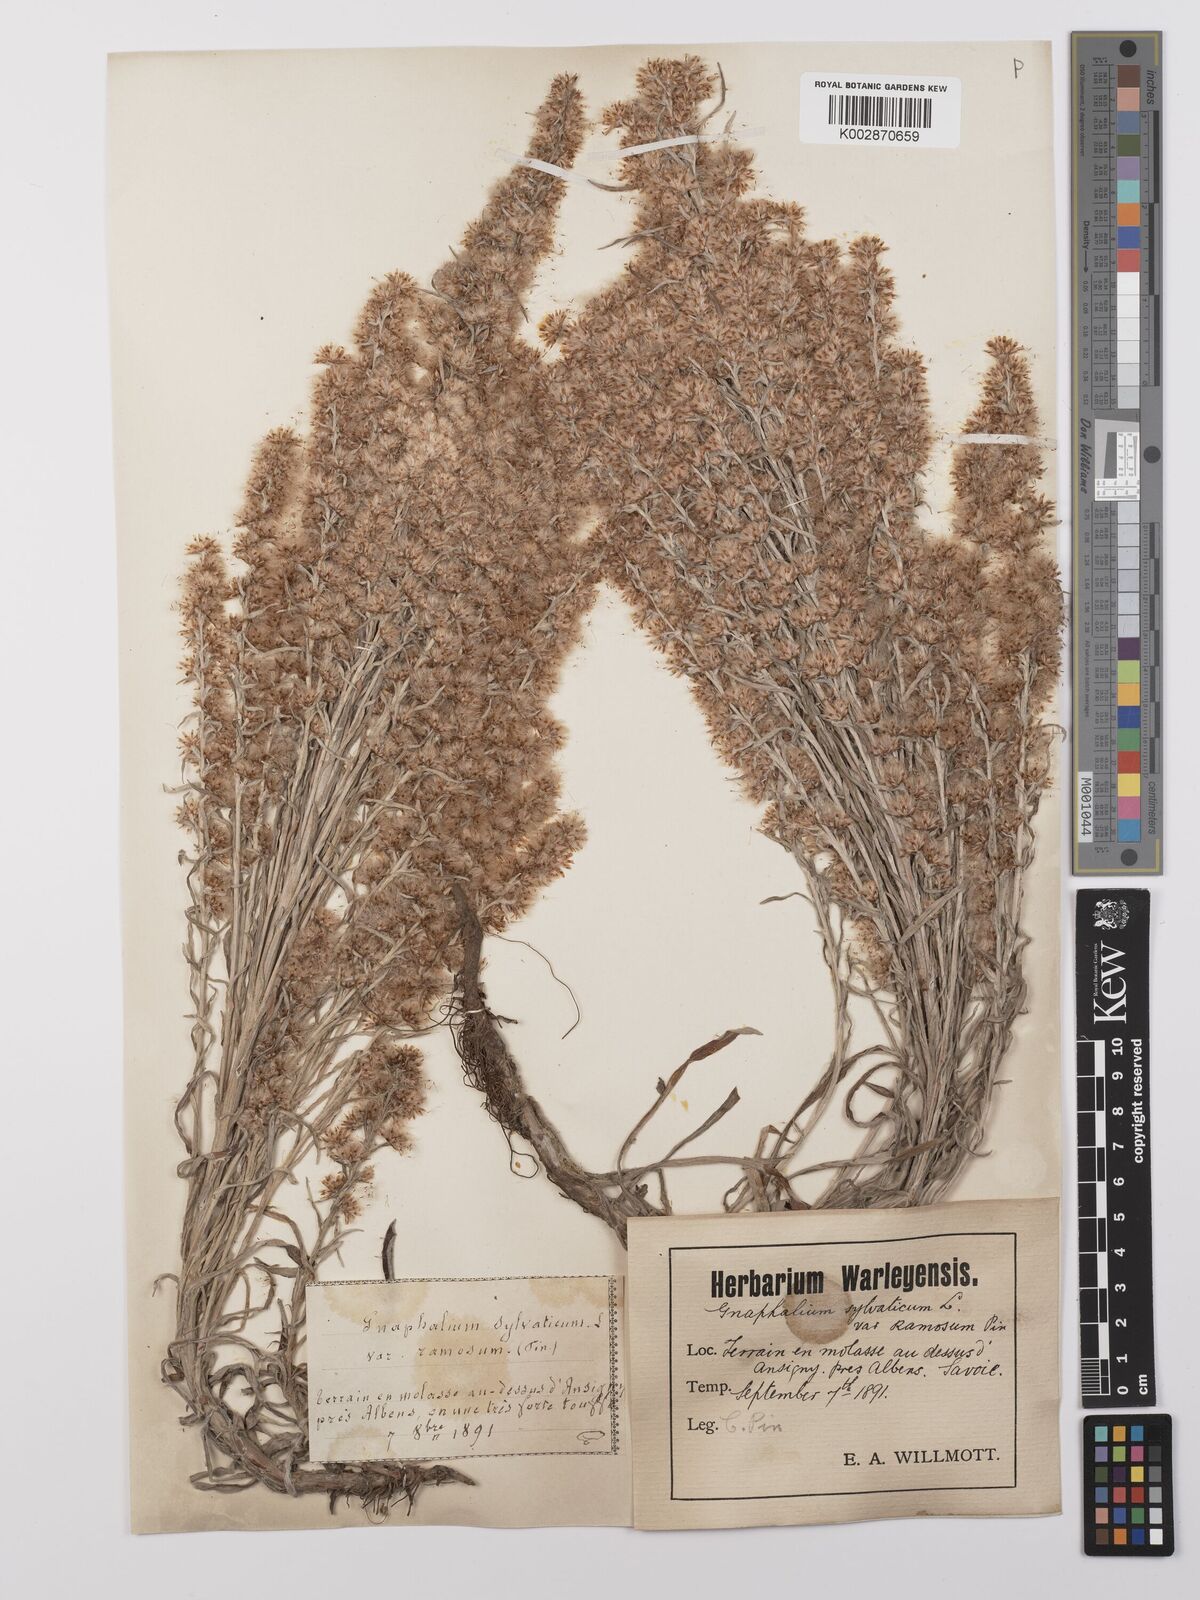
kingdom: Plantae
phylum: Tracheophyta
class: Magnoliopsida
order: Asterales
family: Asteraceae
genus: Omalotheca
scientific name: Omalotheca sylvatica
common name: Heath cudweed
